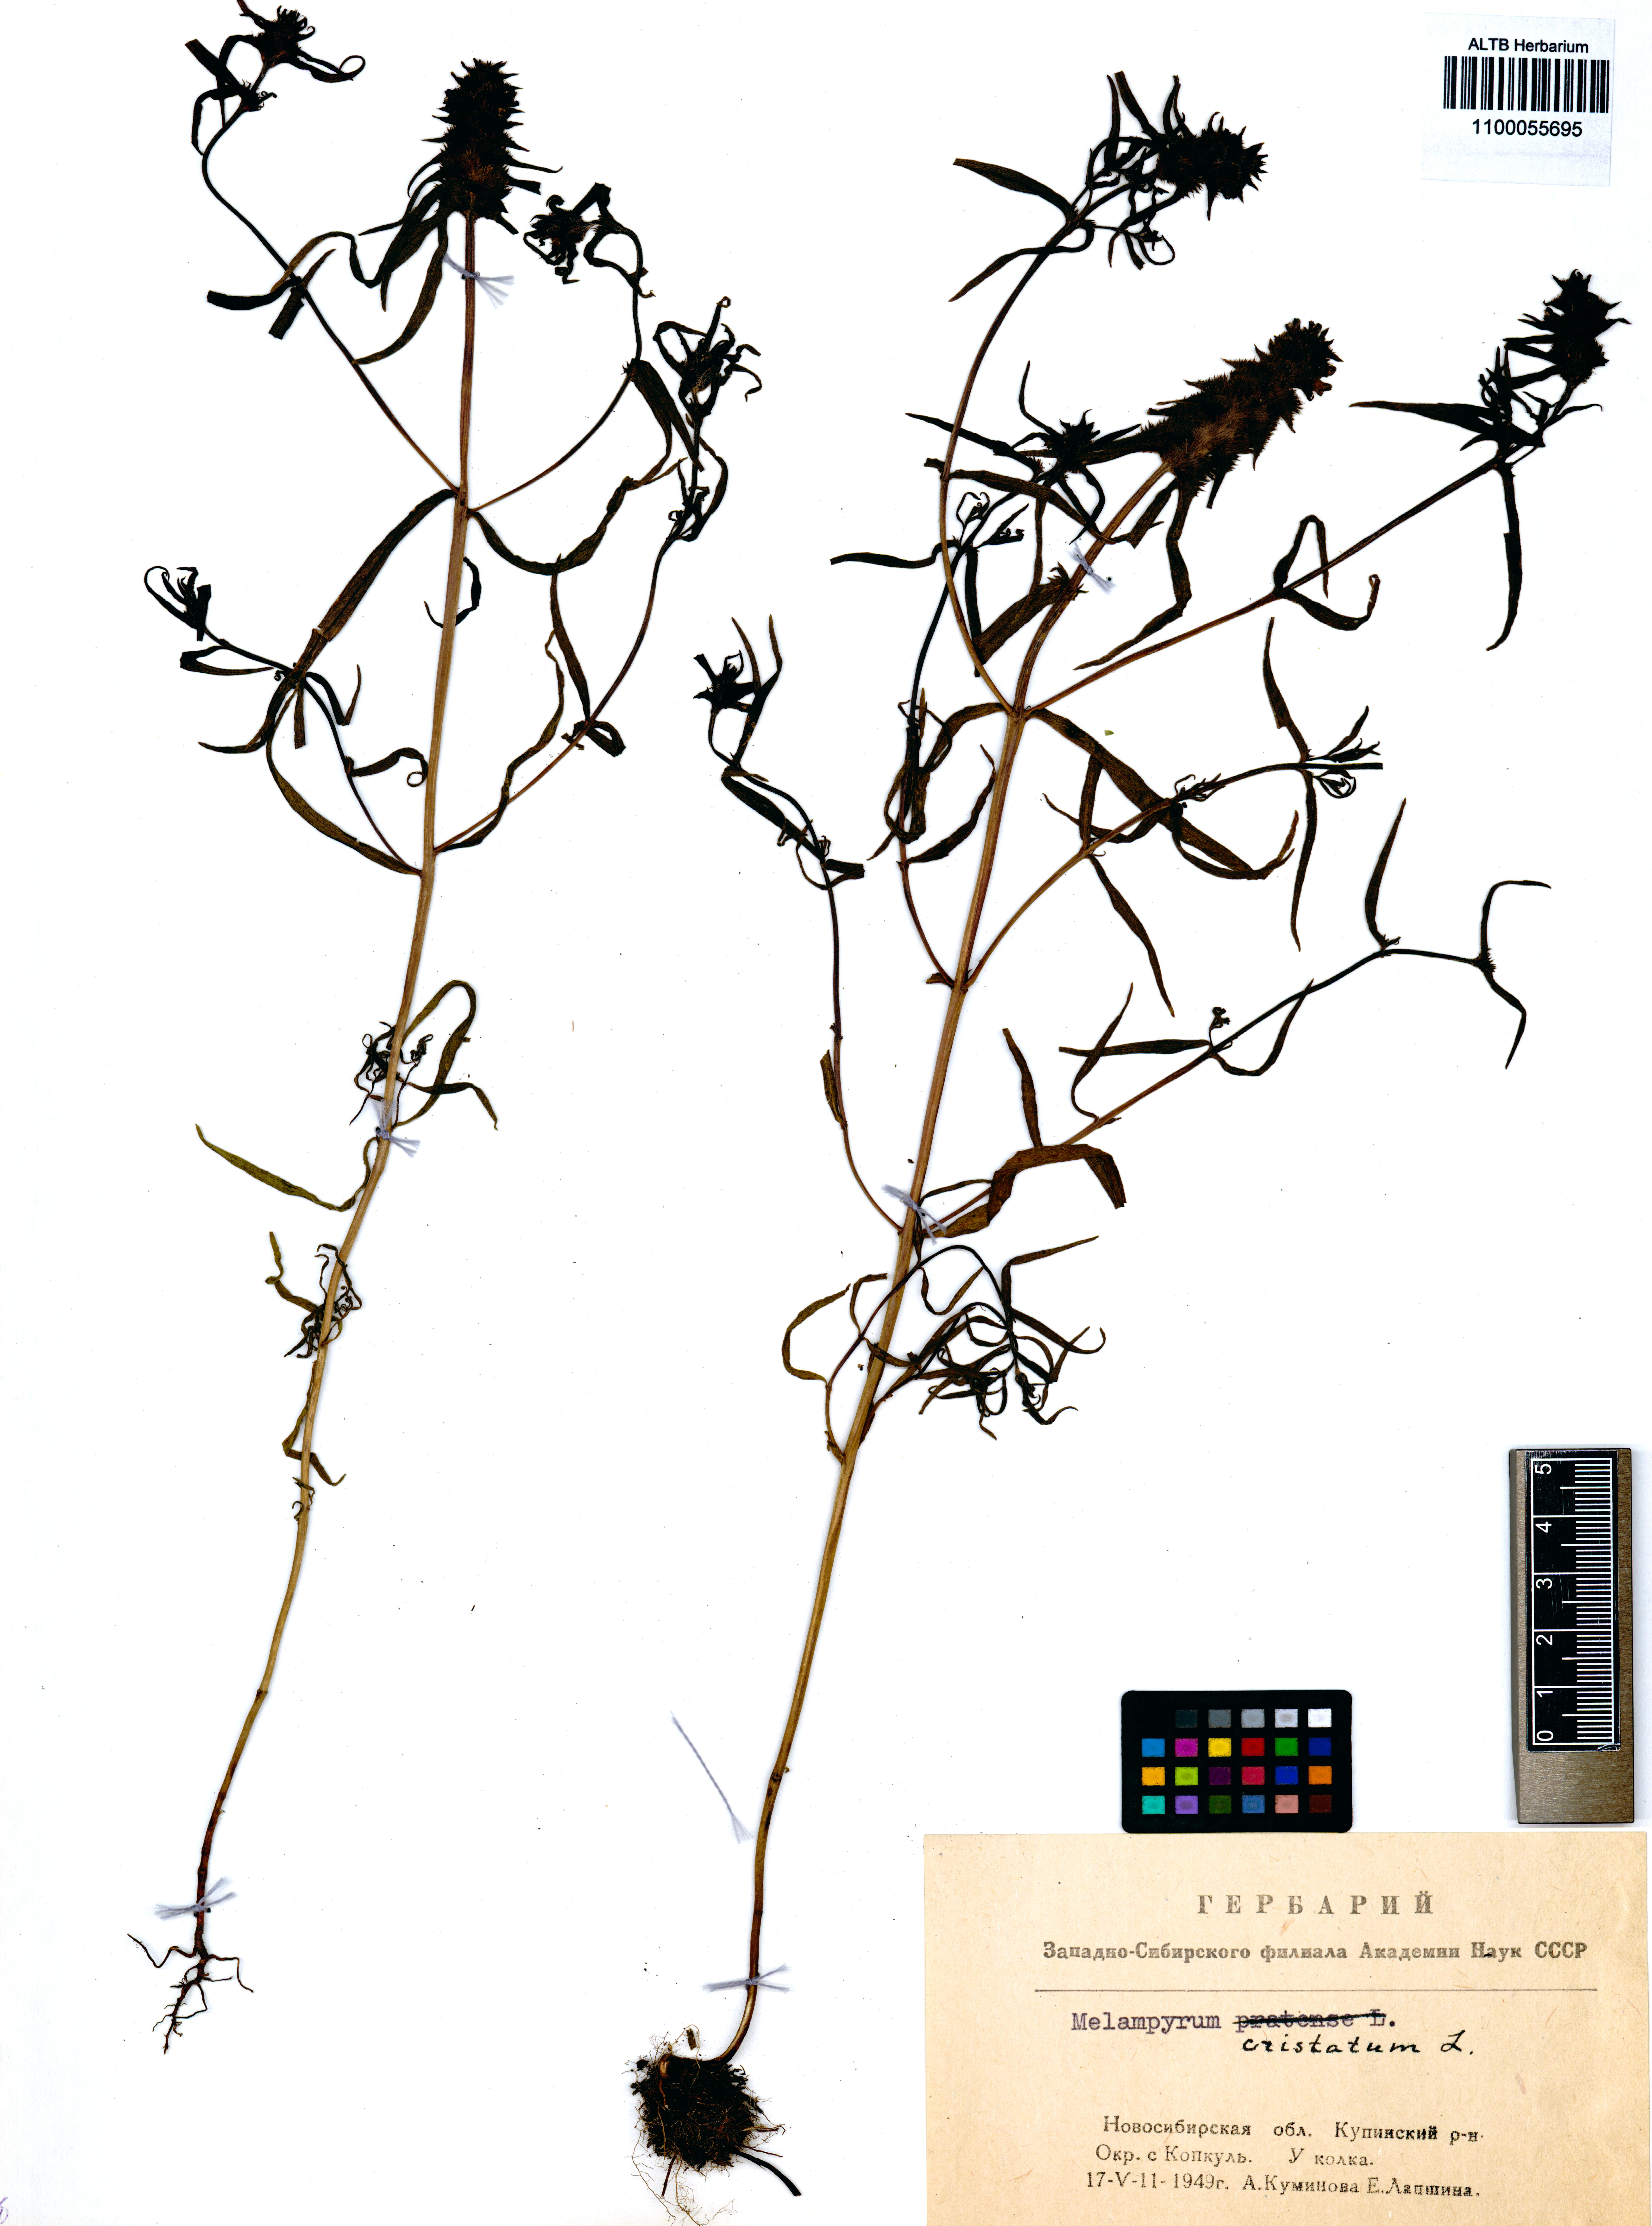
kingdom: Plantae
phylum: Tracheophyta
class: Magnoliopsida
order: Lamiales
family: Orobanchaceae
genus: Melampyrum
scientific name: Melampyrum cristatum
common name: Crested cow-wheat
